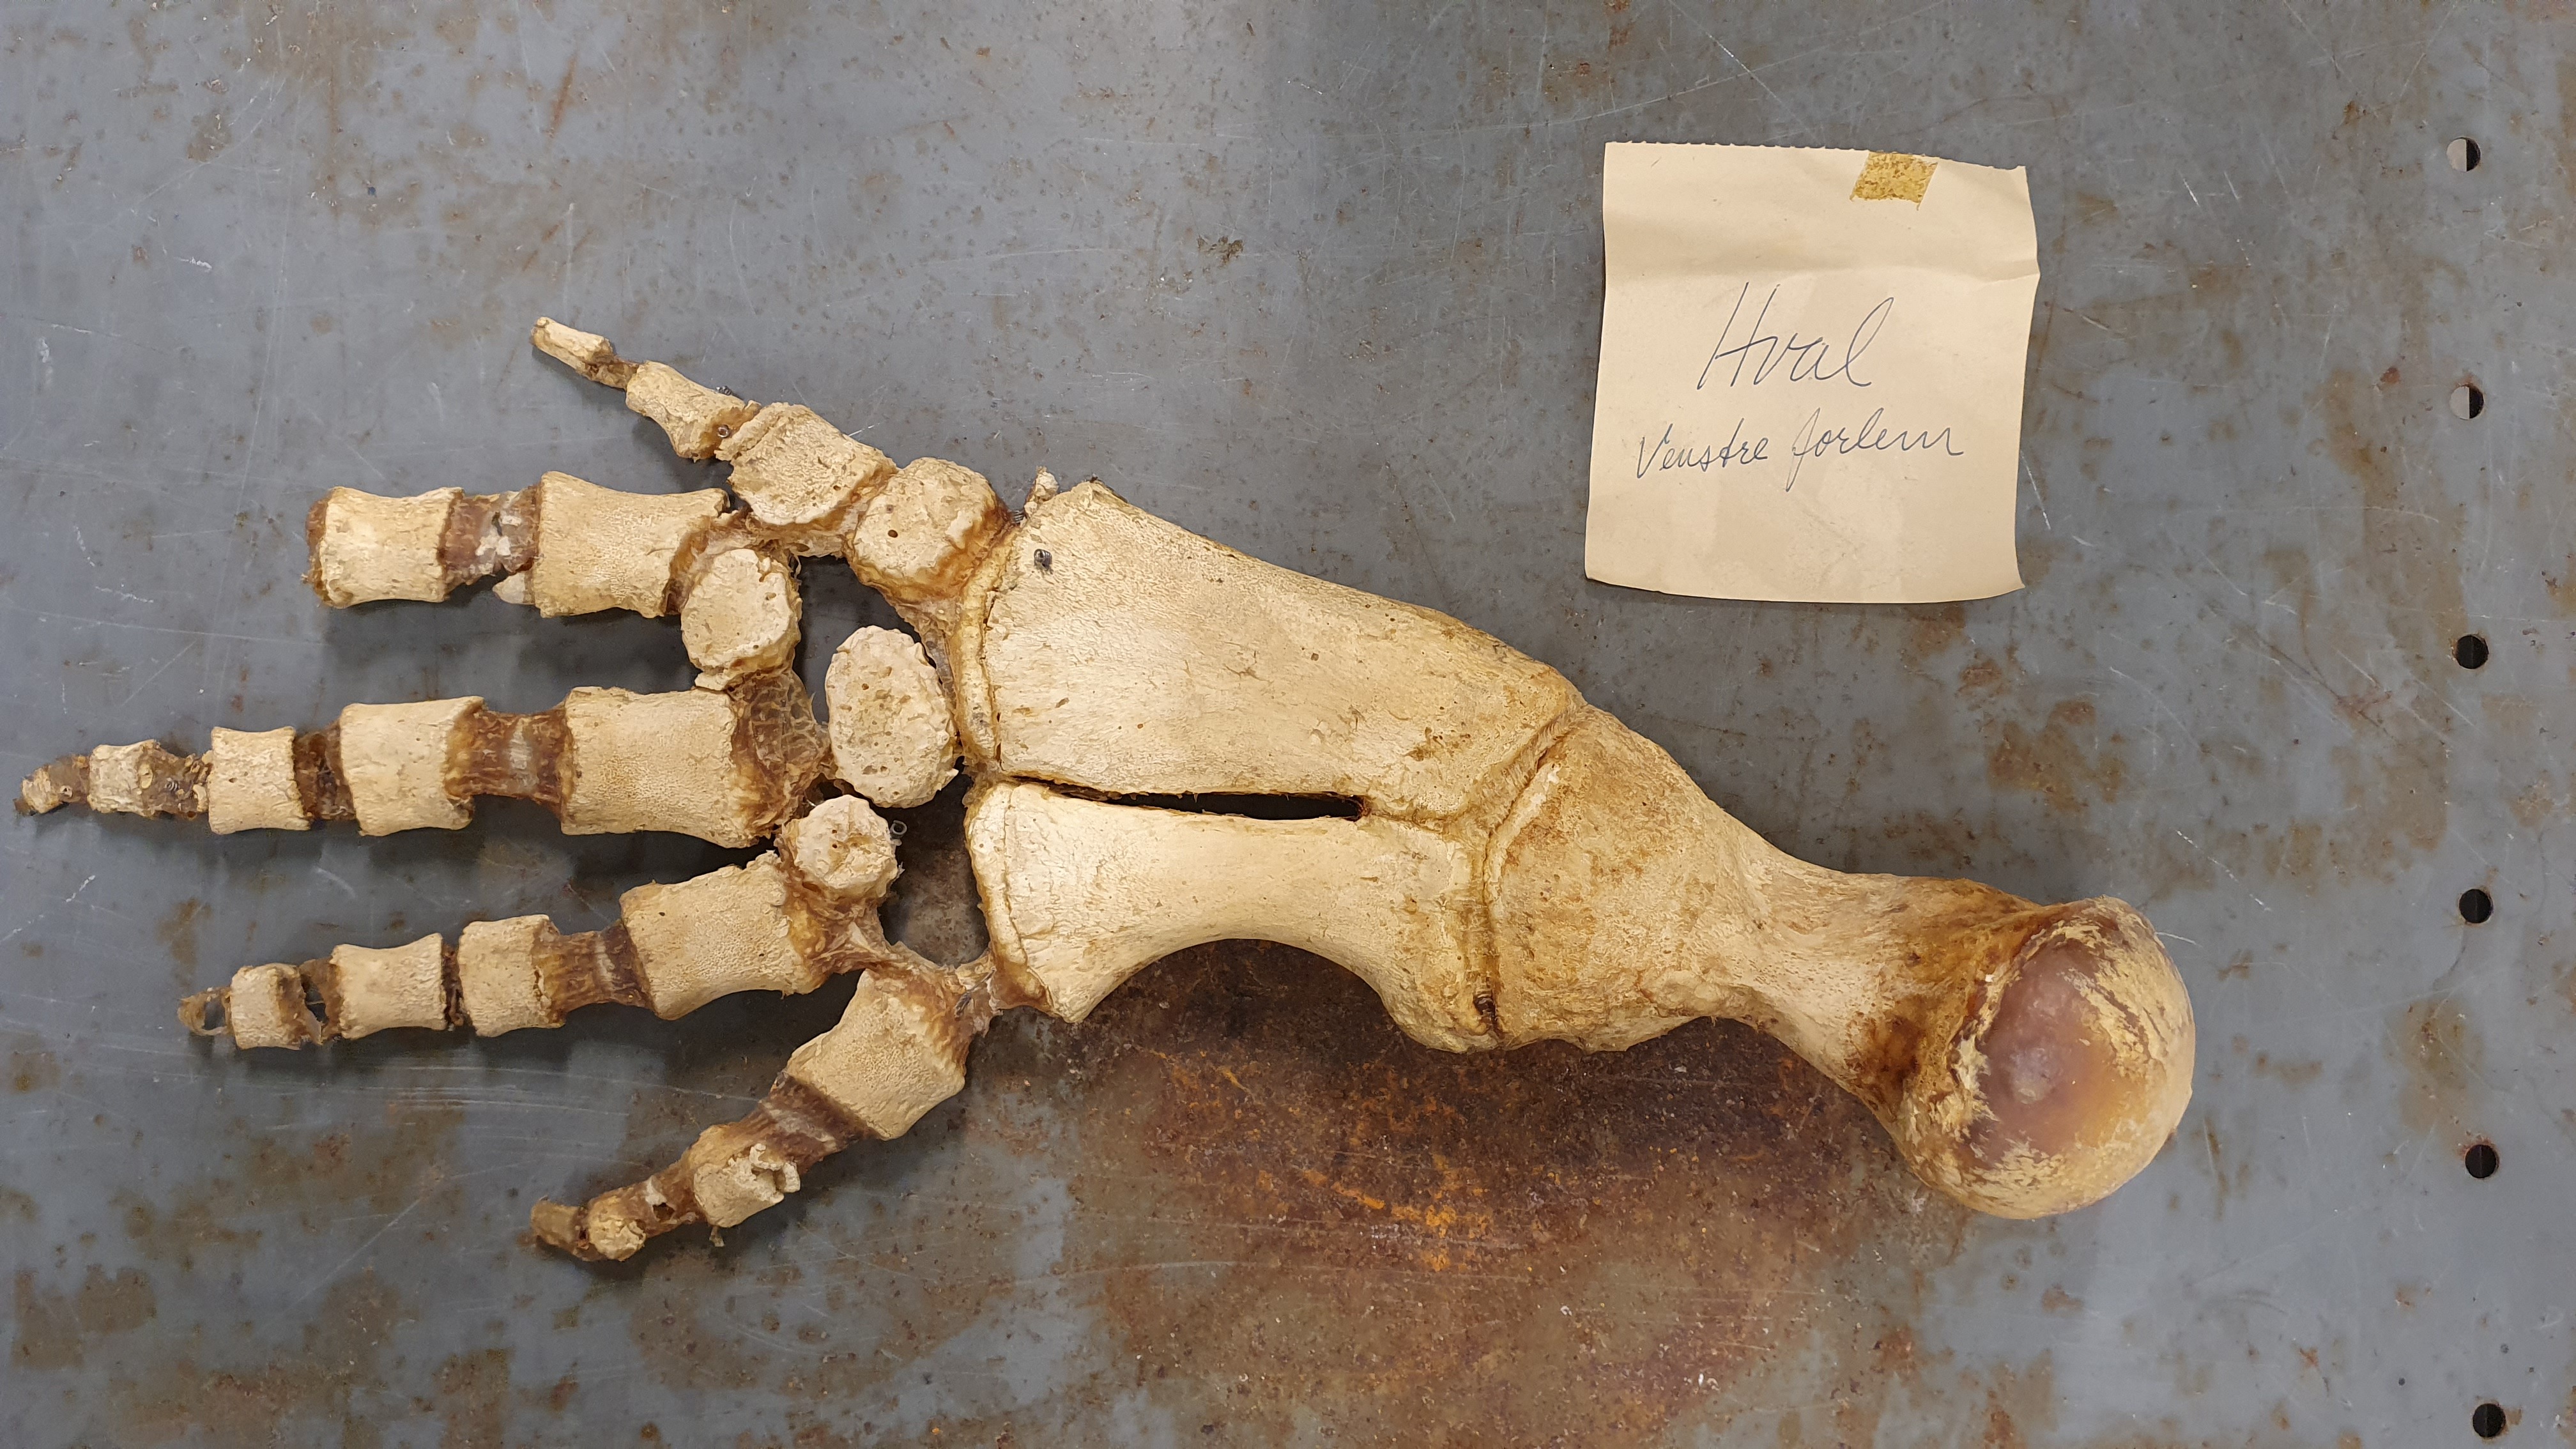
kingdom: Animalia
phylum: Chordata
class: Mammalia
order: Cetacea
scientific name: Cetacea
